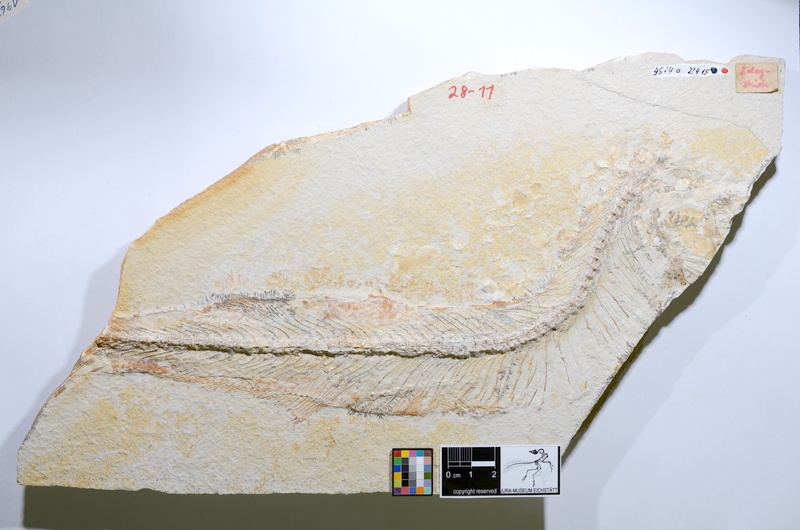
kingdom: Animalia
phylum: Chordata
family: Allothrissopidae
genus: Allothrissops
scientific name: Allothrissops salmoneus
